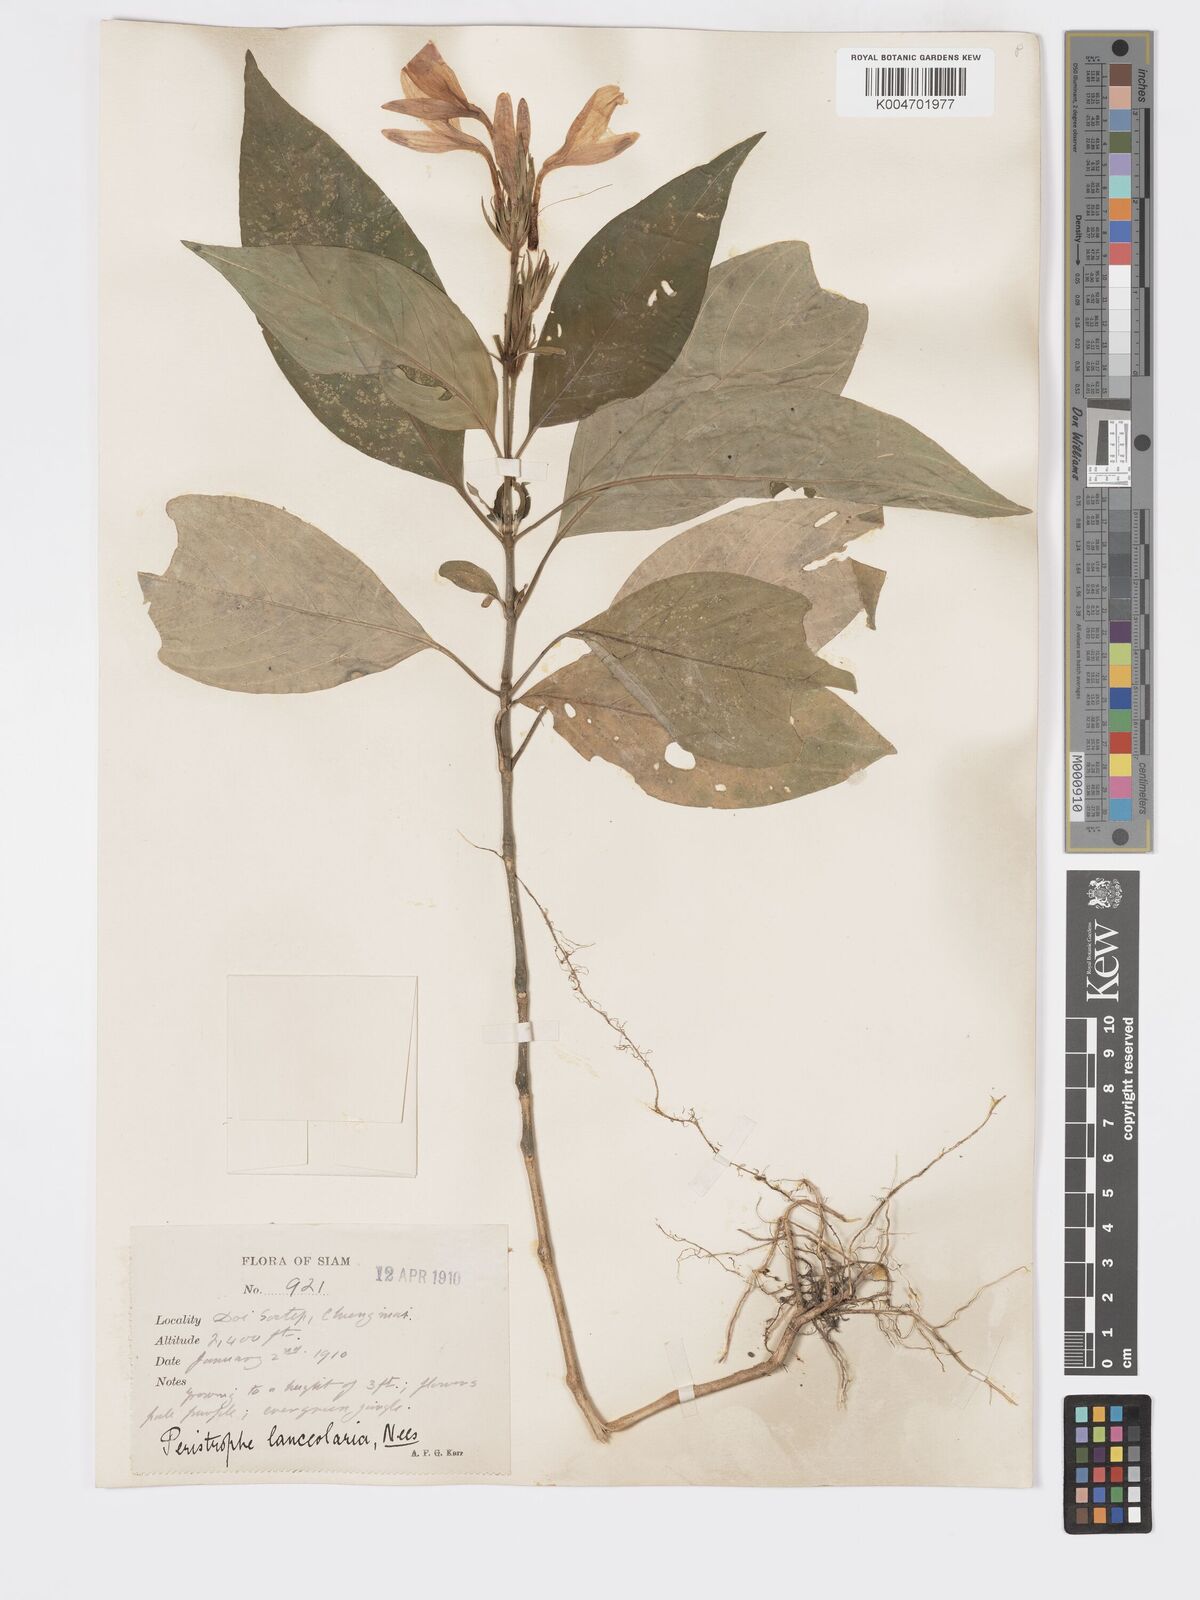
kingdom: Plantae
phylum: Tracheophyta
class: Magnoliopsida
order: Lamiales
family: Acanthaceae
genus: Dicliptera
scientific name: Dicliptera lanceolaria
